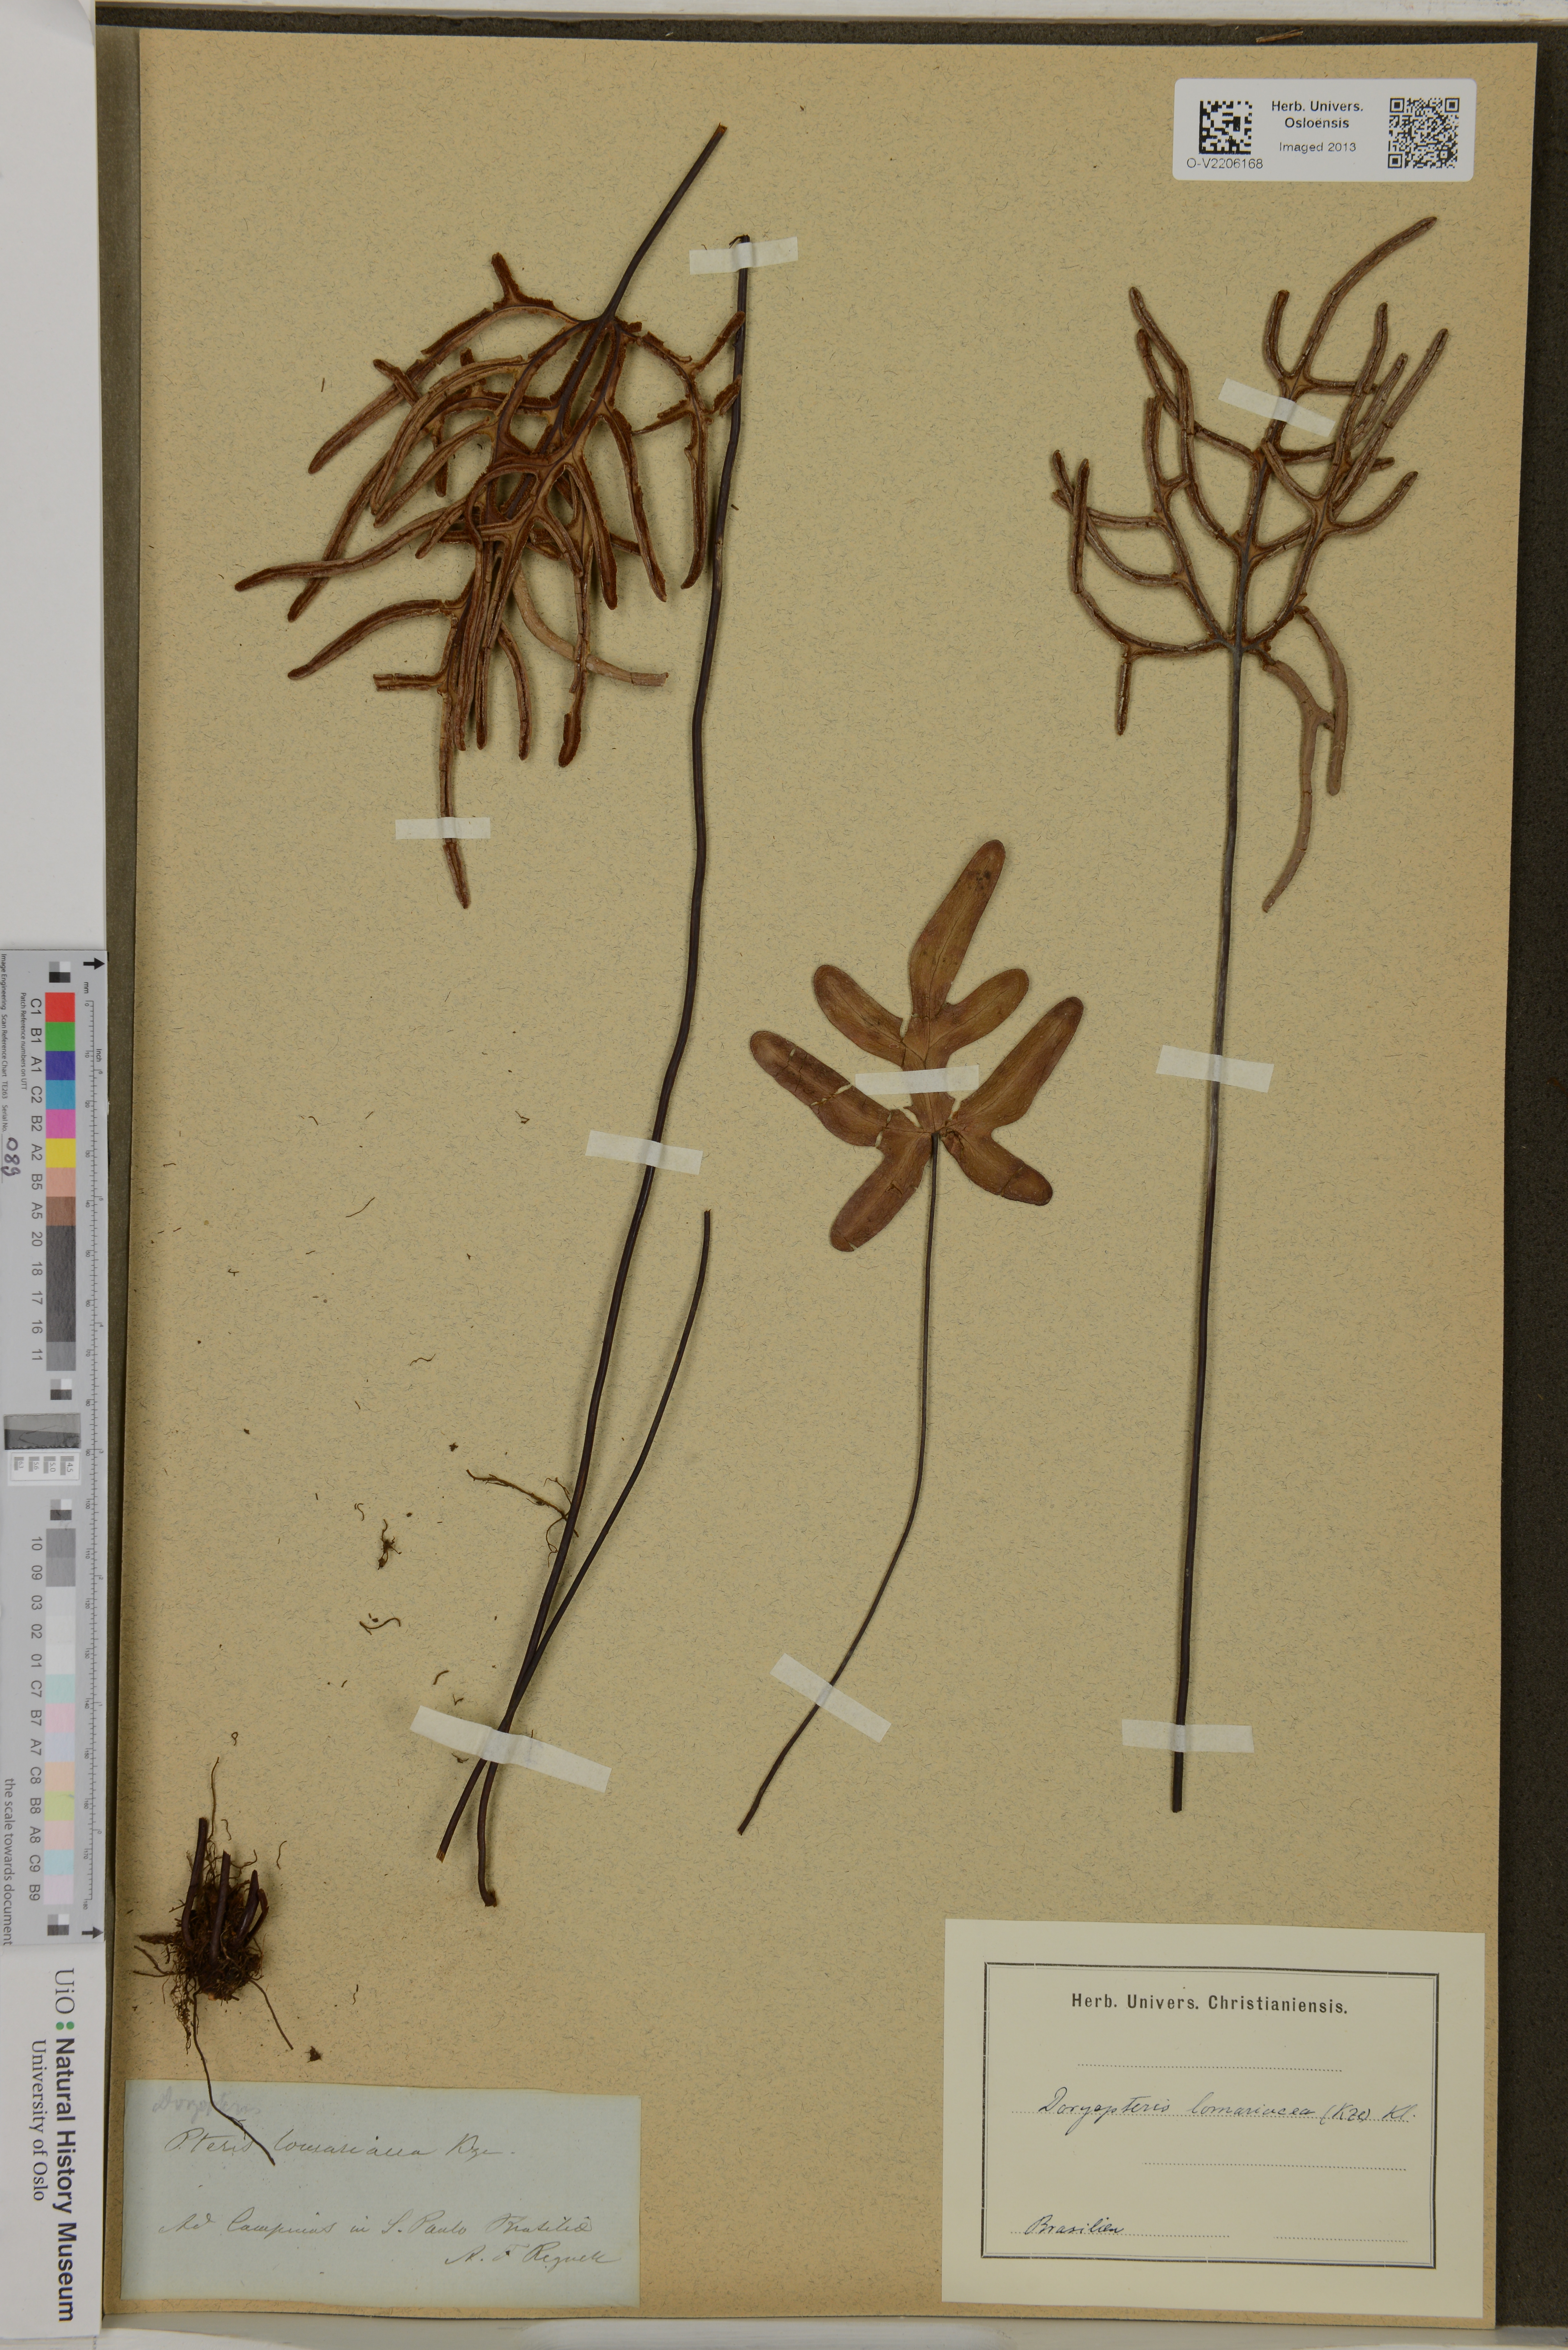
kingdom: Plantae
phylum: Tracheophyta
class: Polypodiopsida
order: Polypodiales
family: Pteridaceae
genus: Lytoneuron
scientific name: Lytoneuron lomariaceum
